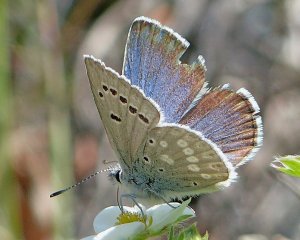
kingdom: Animalia
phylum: Arthropoda
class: Insecta
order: Lepidoptera
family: Lycaenidae
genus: Icaricia
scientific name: Icaricia icarioides
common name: Boisduval's Blue
